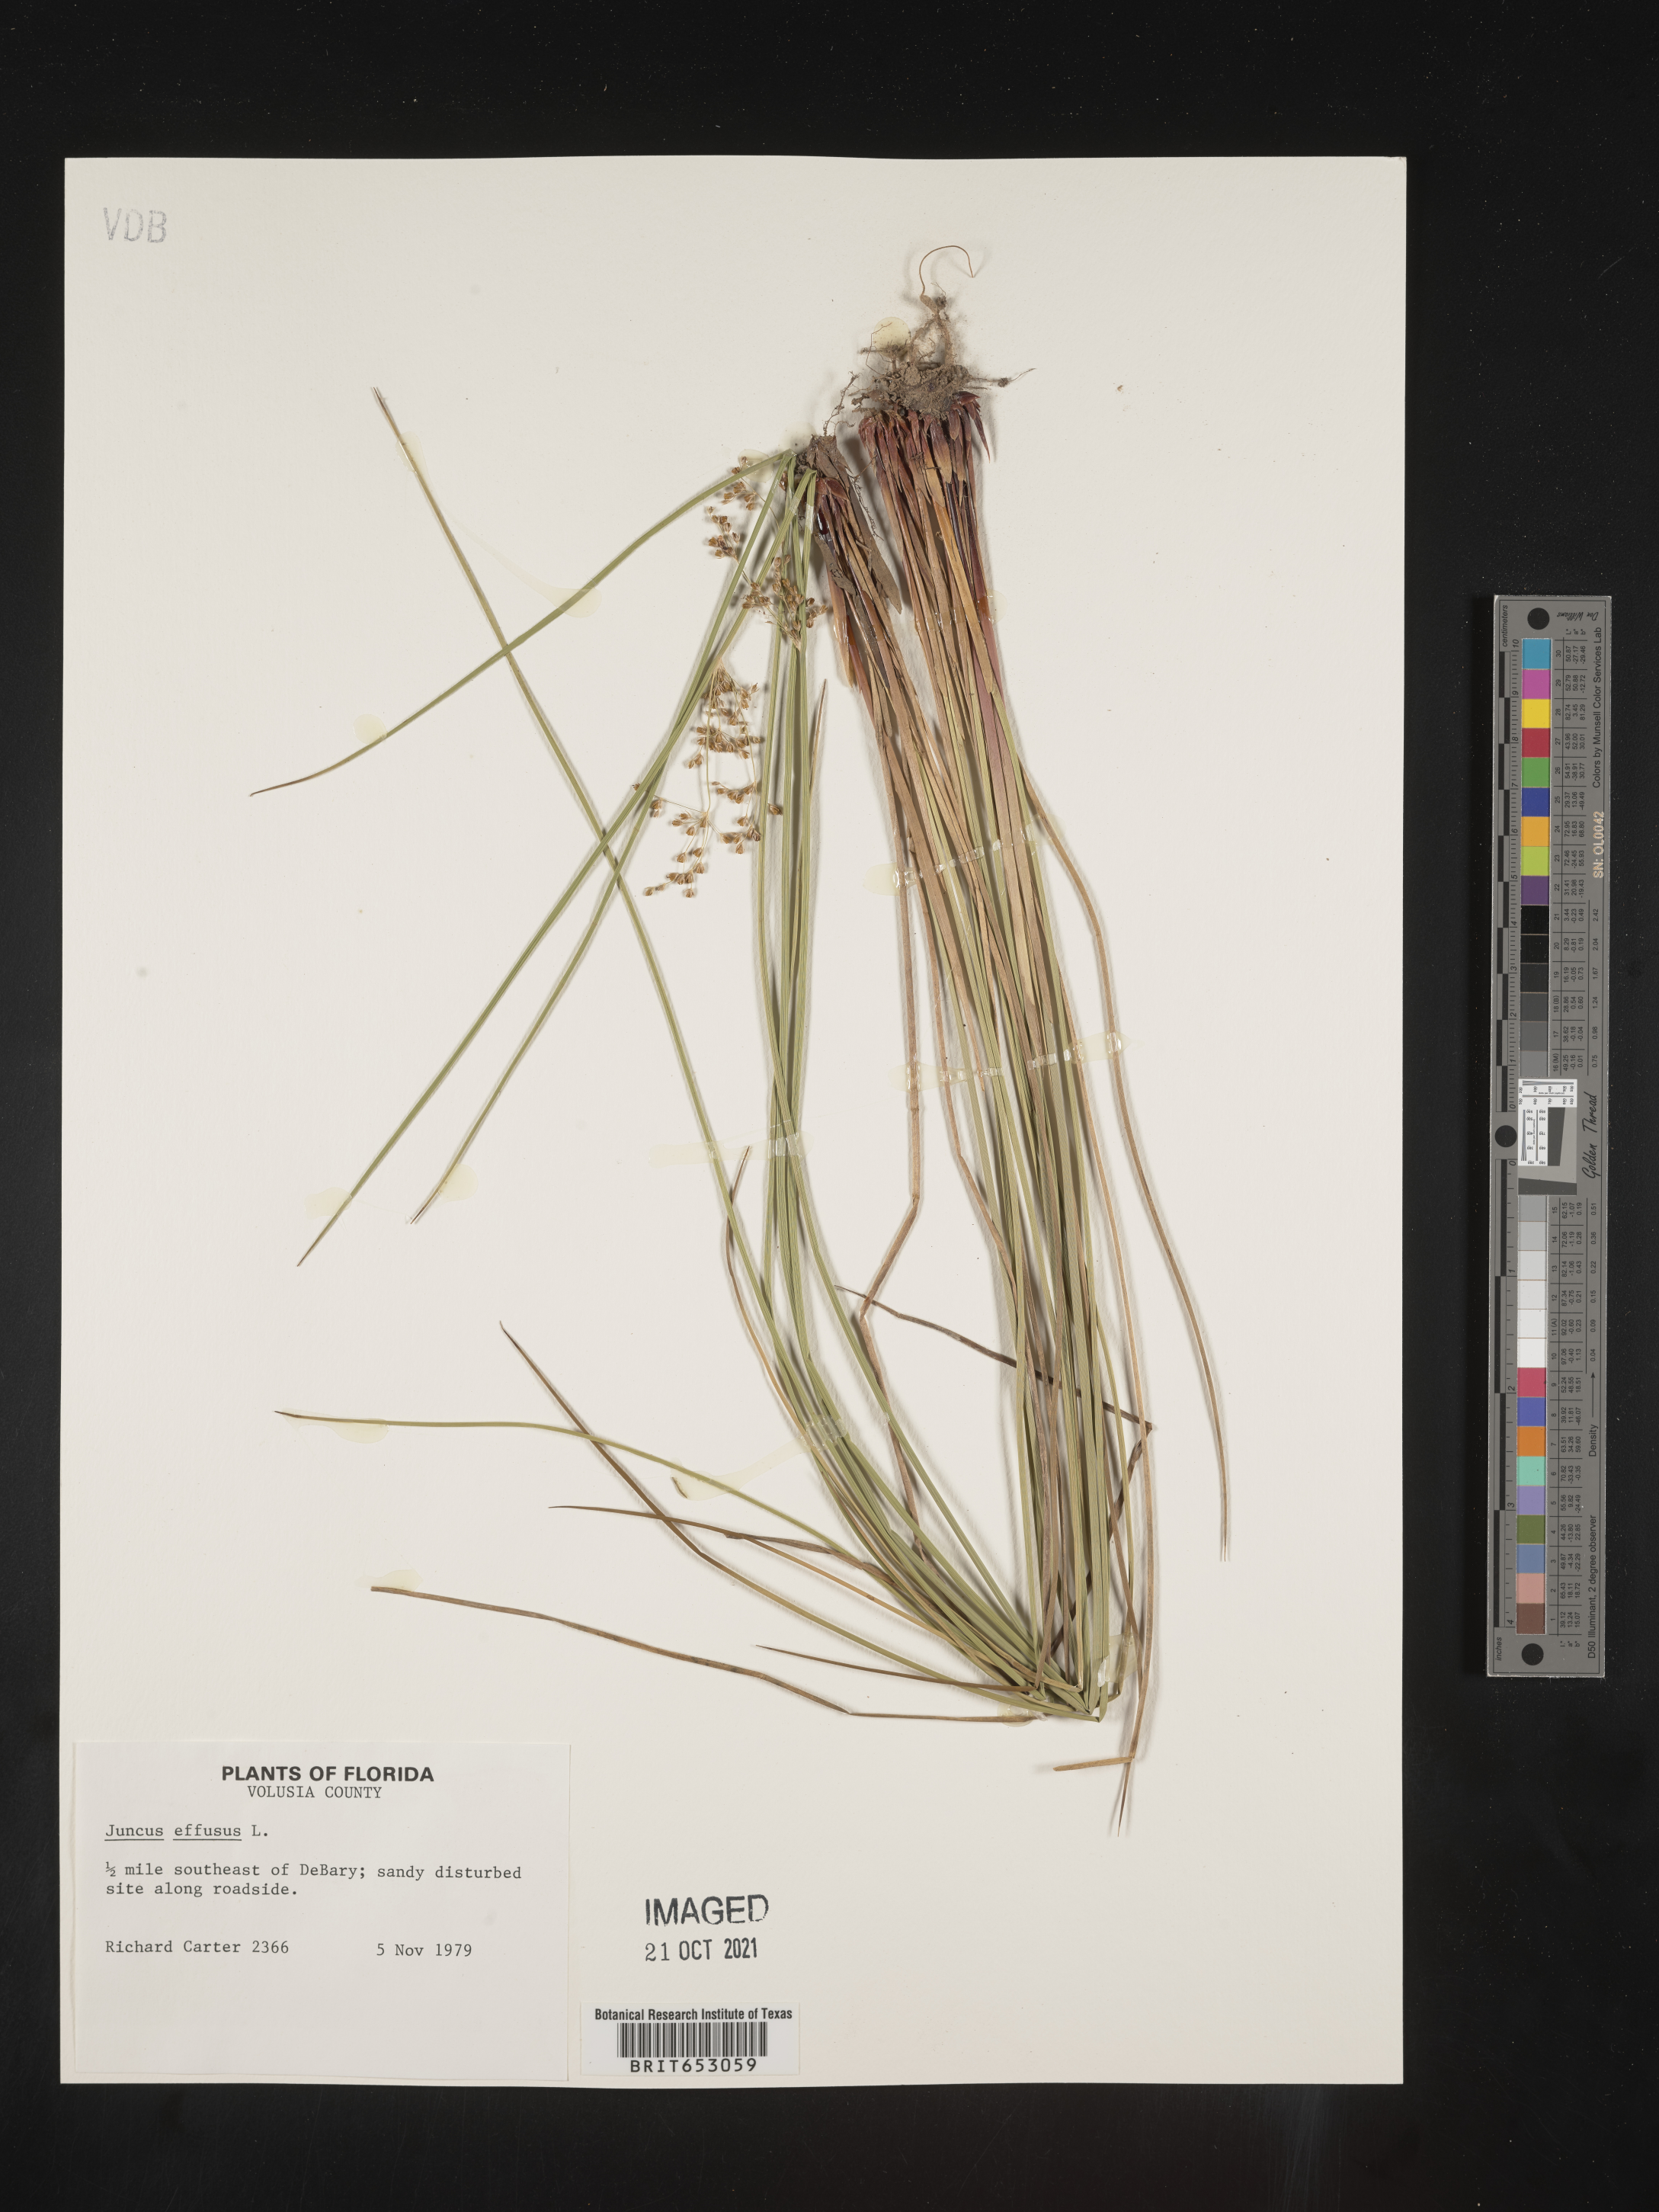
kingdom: Plantae
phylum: Tracheophyta
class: Liliopsida
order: Poales
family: Juncaceae
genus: Juncus
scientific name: Juncus effusus
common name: Soft rush
